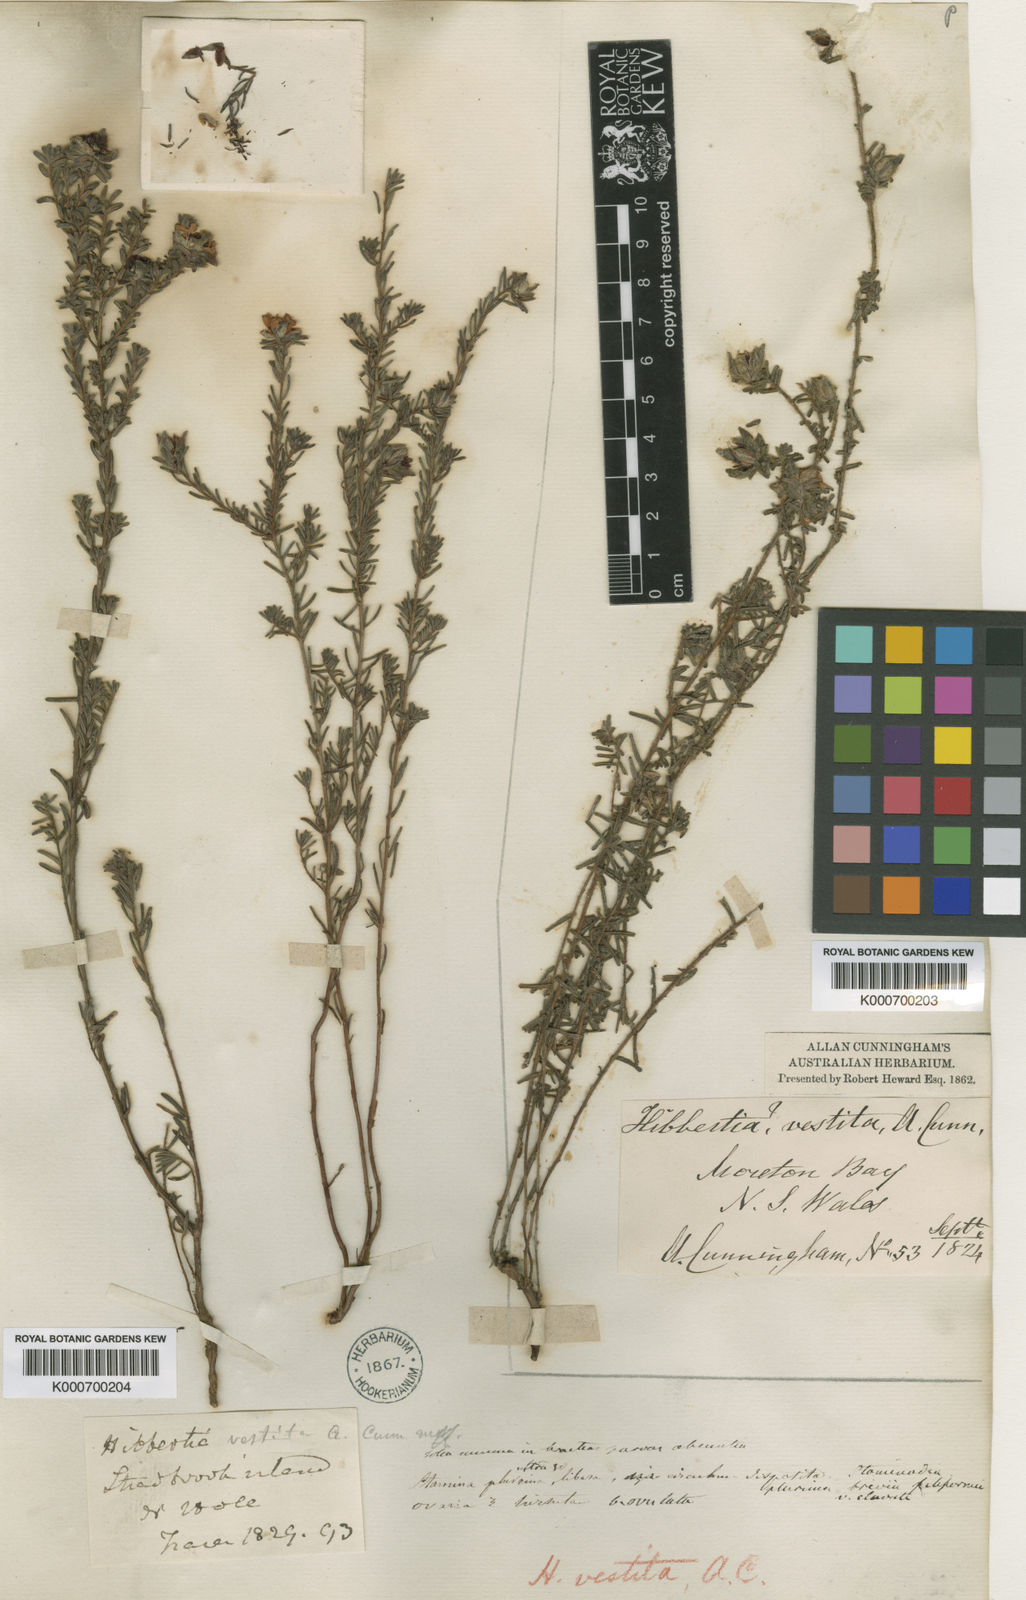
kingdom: Plantae
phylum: Tracheophyta
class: Magnoliopsida
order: Dilleniales
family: Dilleniaceae
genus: Hibbertia
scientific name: Hibbertia vestita
